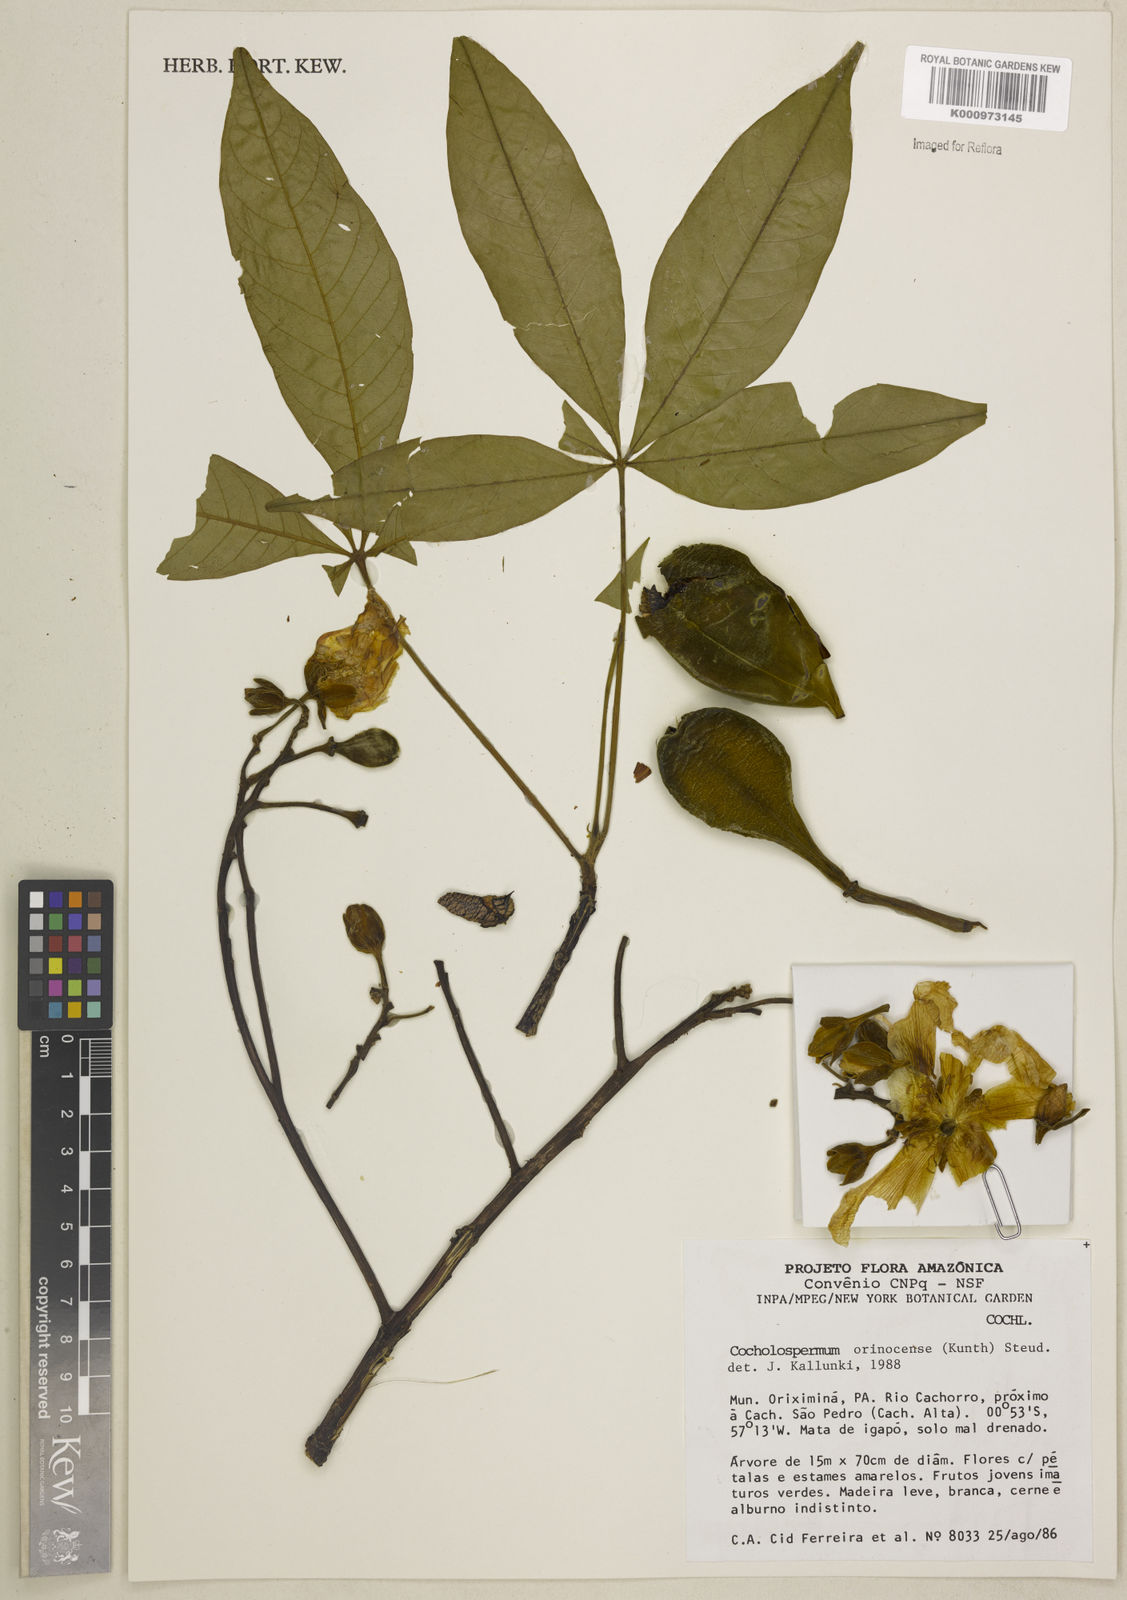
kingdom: Plantae
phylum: Tracheophyta
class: Magnoliopsida
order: Malvales
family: Cochlospermaceae
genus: Cochlospermum
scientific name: Cochlospermum orinocense
